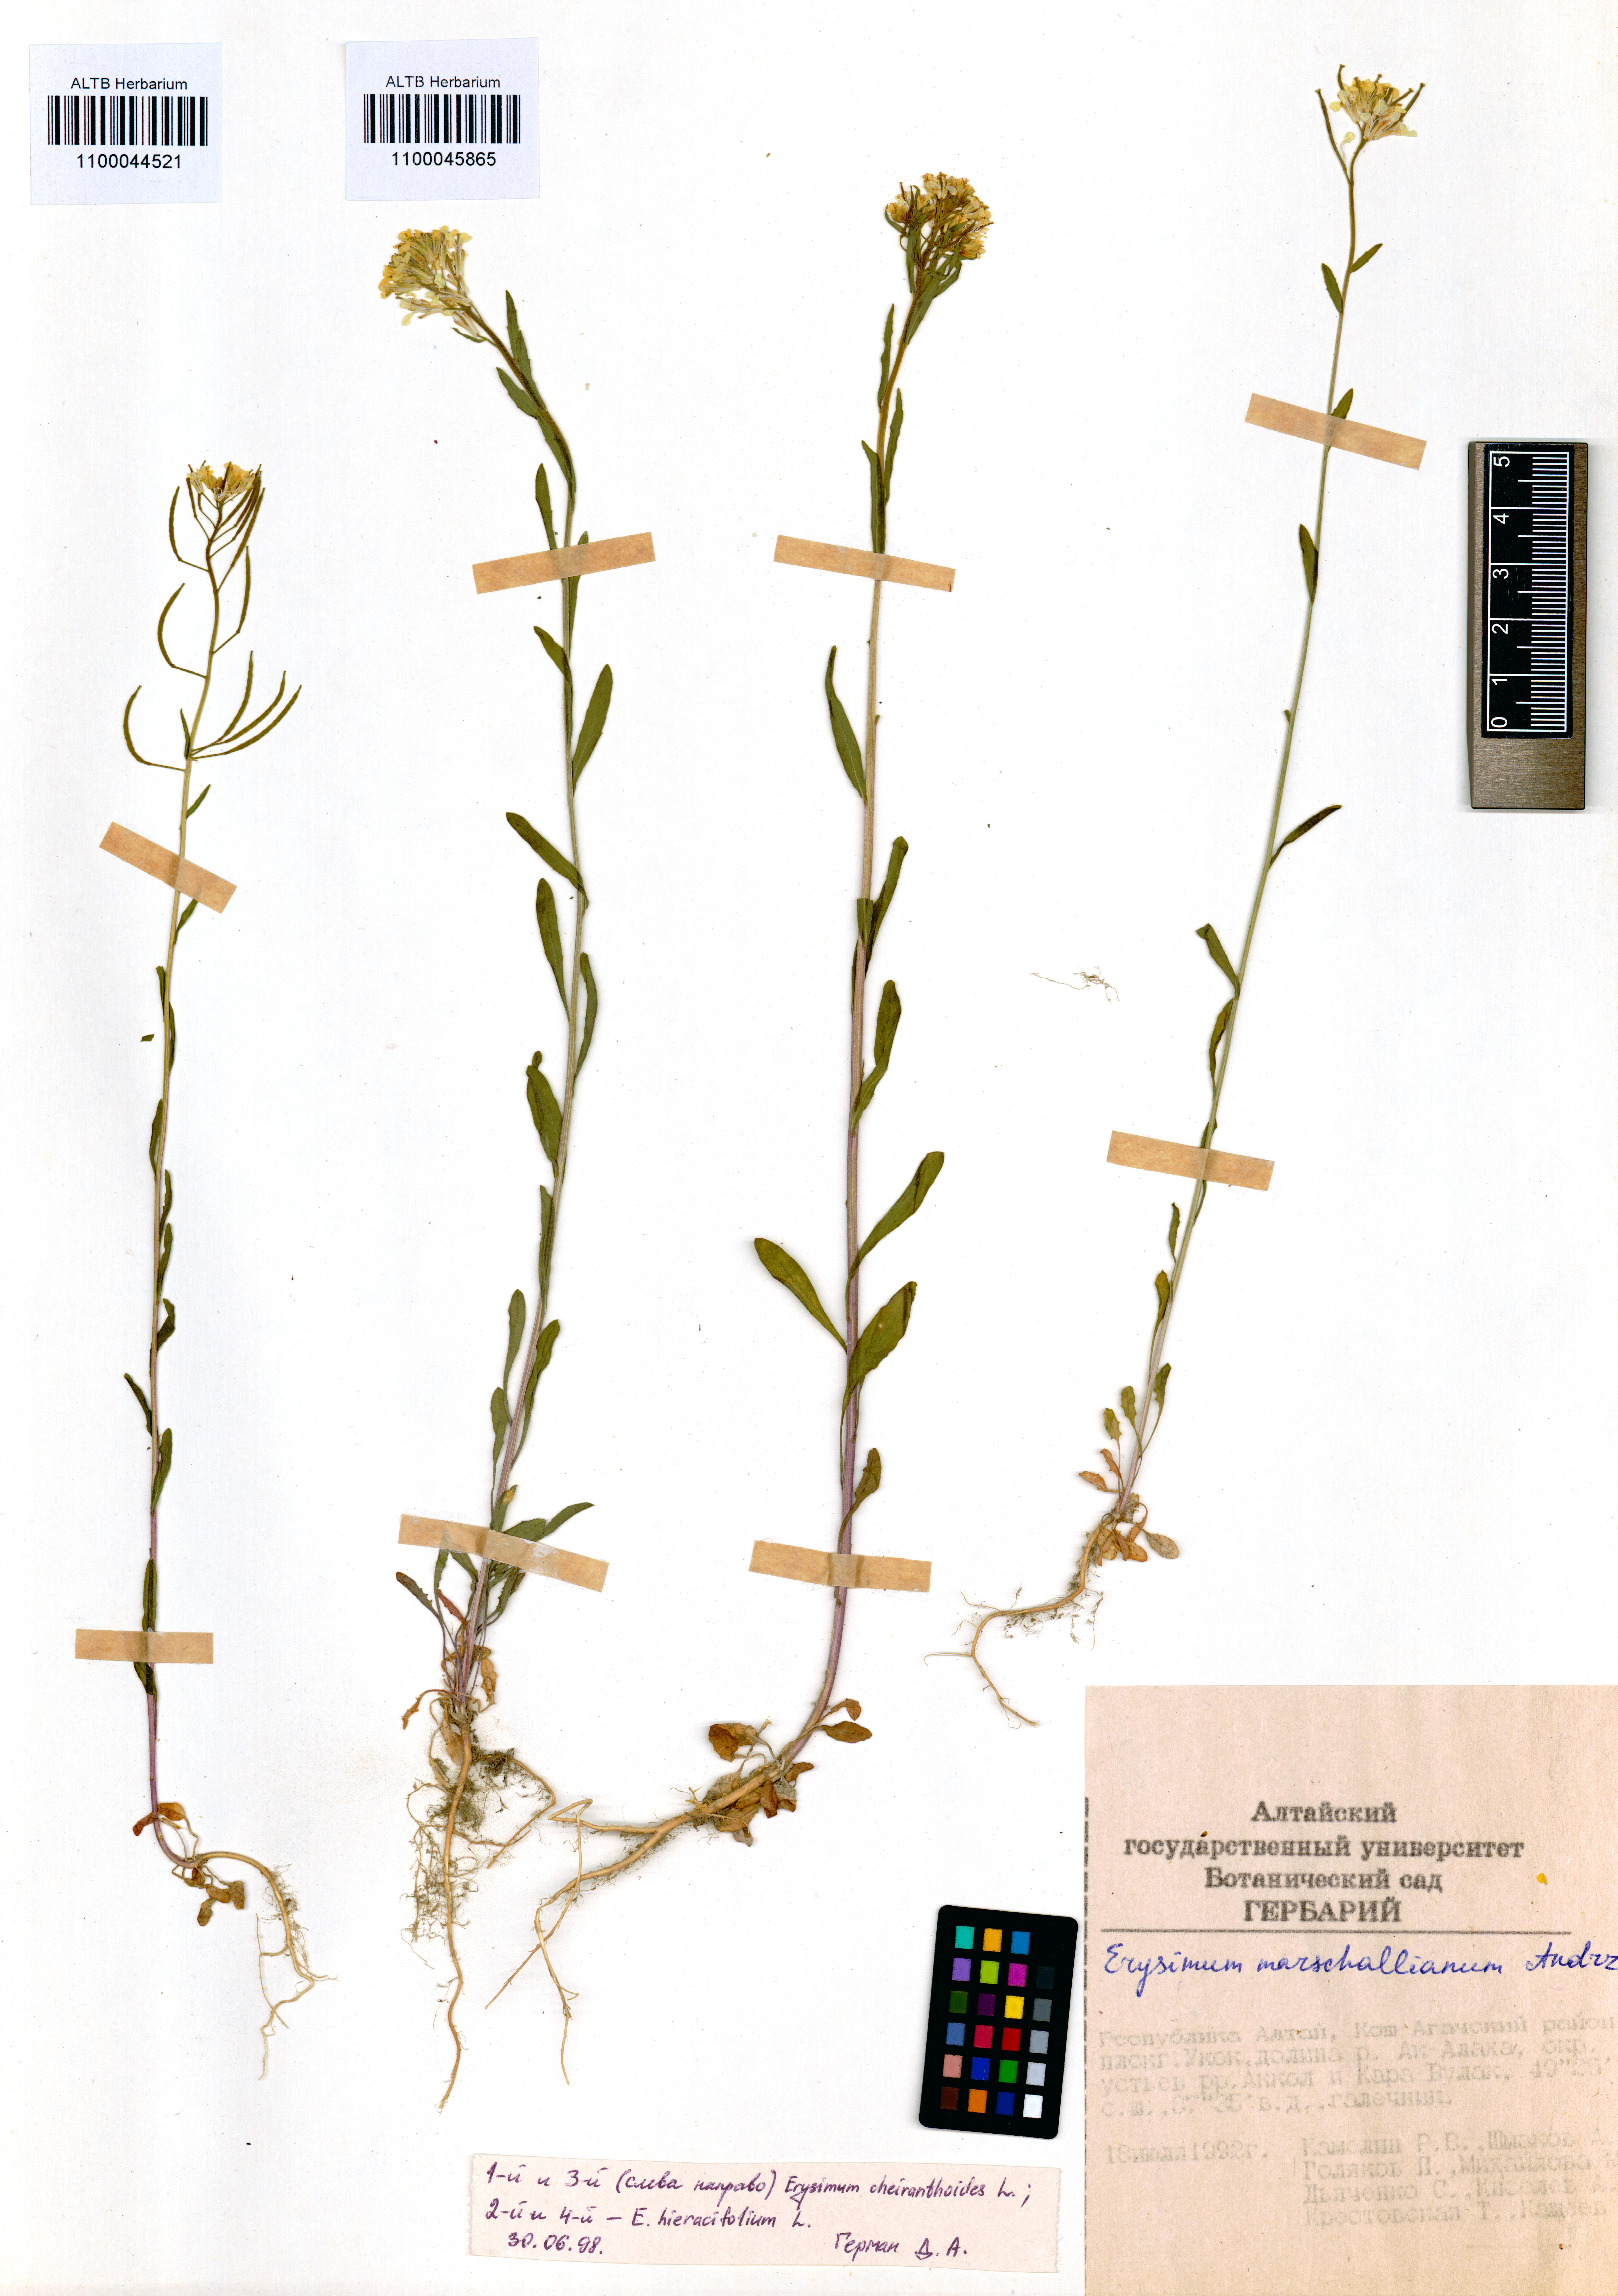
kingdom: Plantae
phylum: Tracheophyta
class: Magnoliopsida
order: Brassicales
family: Brassicaceae
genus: Erysimum
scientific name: Erysimum hieraciifolium
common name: European wallflower
